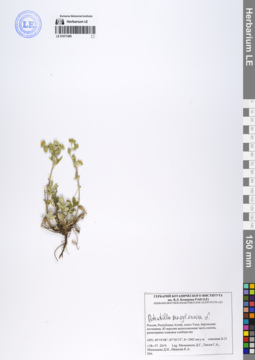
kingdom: Plantae
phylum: Tracheophyta
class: Magnoliopsida
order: Rosales
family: Rosaceae
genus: Potentilla
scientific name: Potentilla pensylvanica
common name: Pennsylvania cinquefoil
